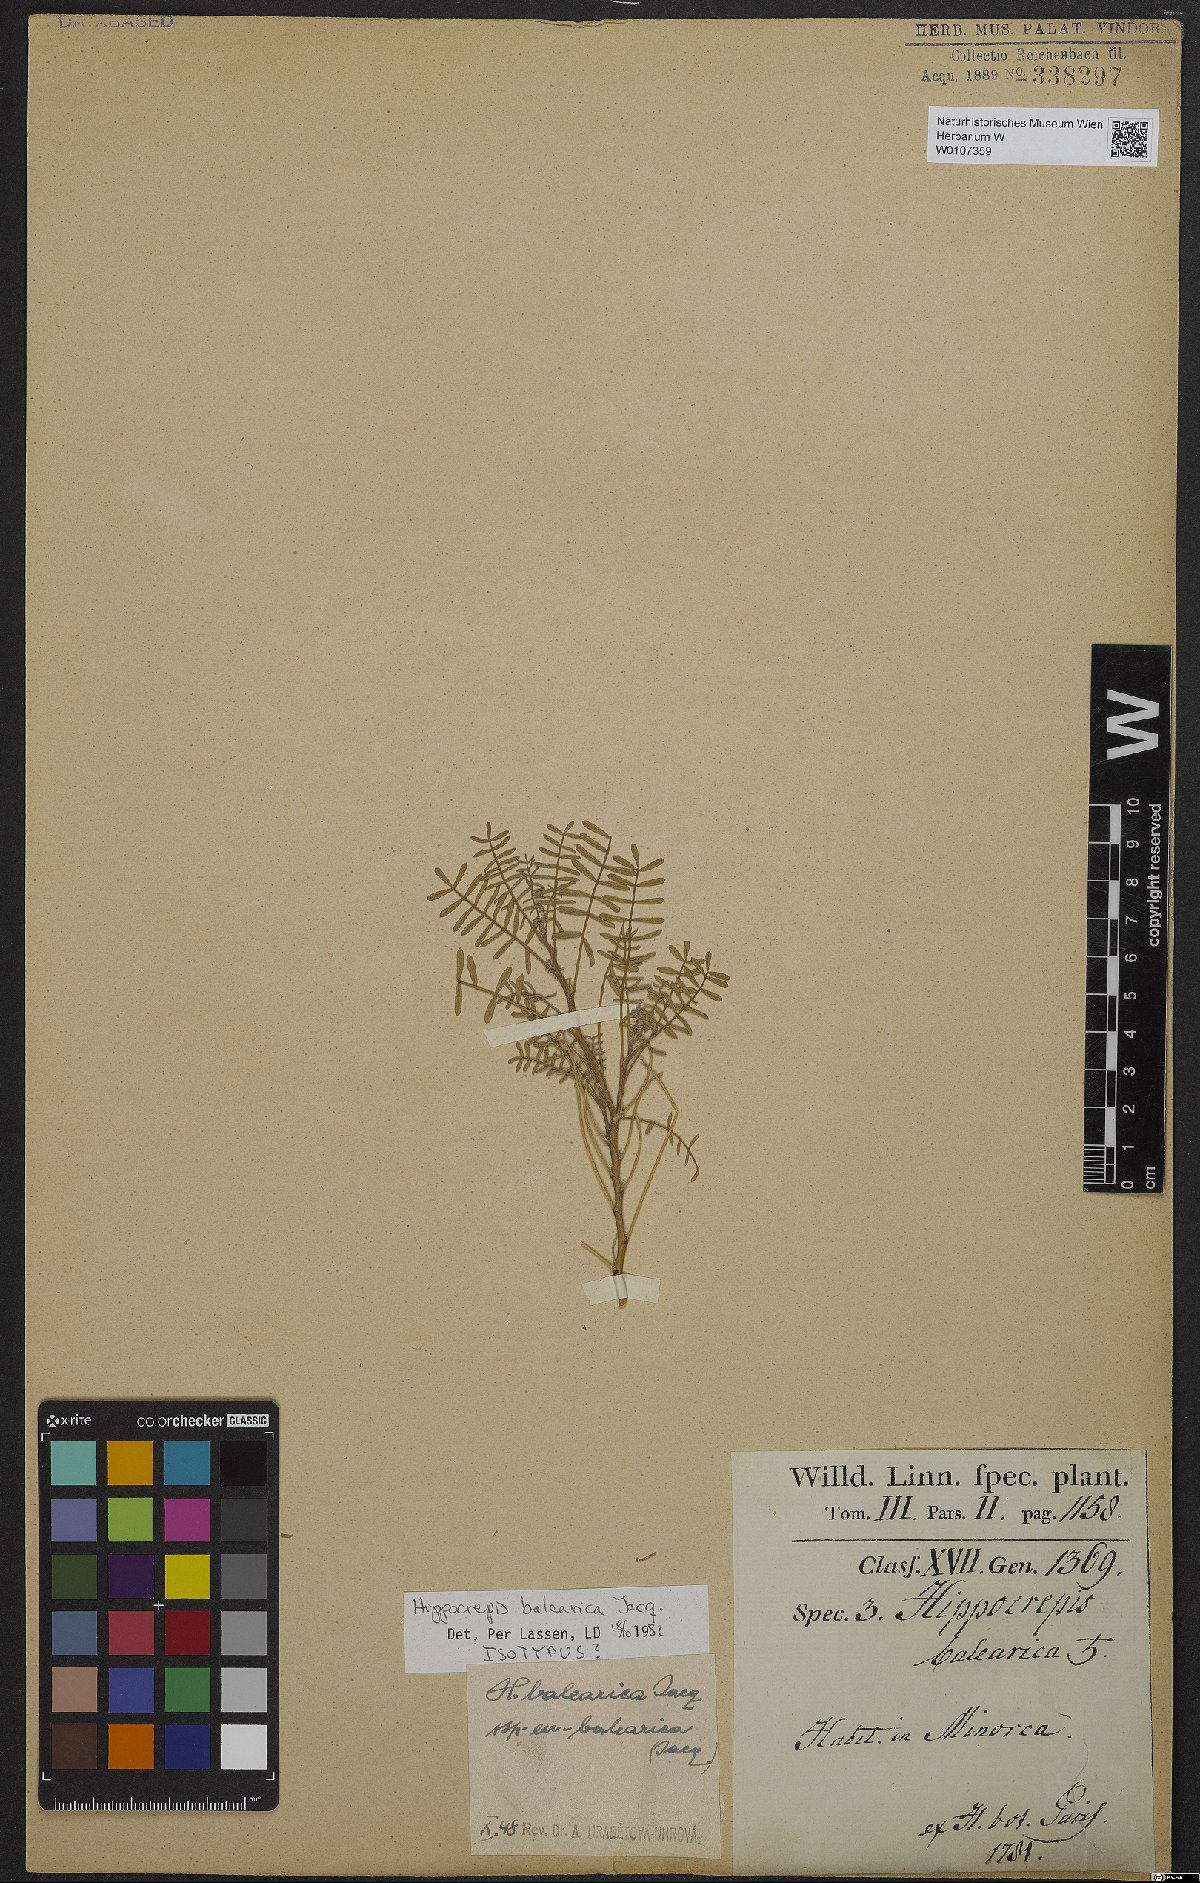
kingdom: Plantae
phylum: Tracheophyta
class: Magnoliopsida
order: Fabales
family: Fabaceae
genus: Hippocrepis
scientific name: Hippocrepis balearica
